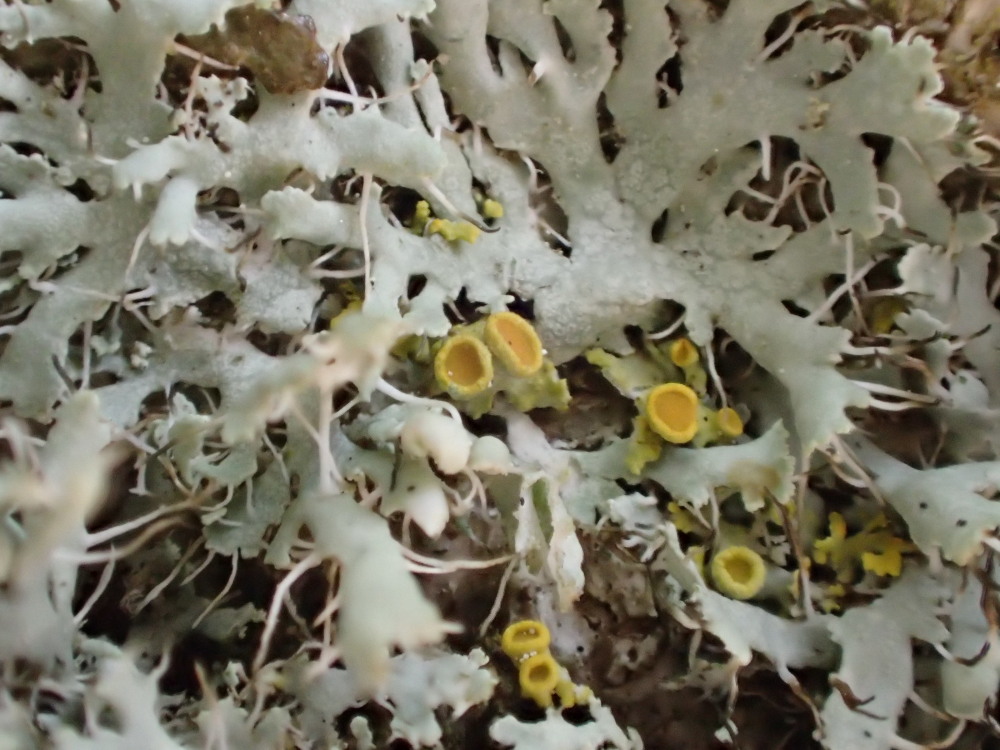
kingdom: Fungi
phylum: Ascomycota
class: Lecanoromycetes
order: Teloschistales
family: Teloschistaceae
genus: Polycauliona
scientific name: Polycauliona polycarpa
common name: mangefrugtet orangelav
